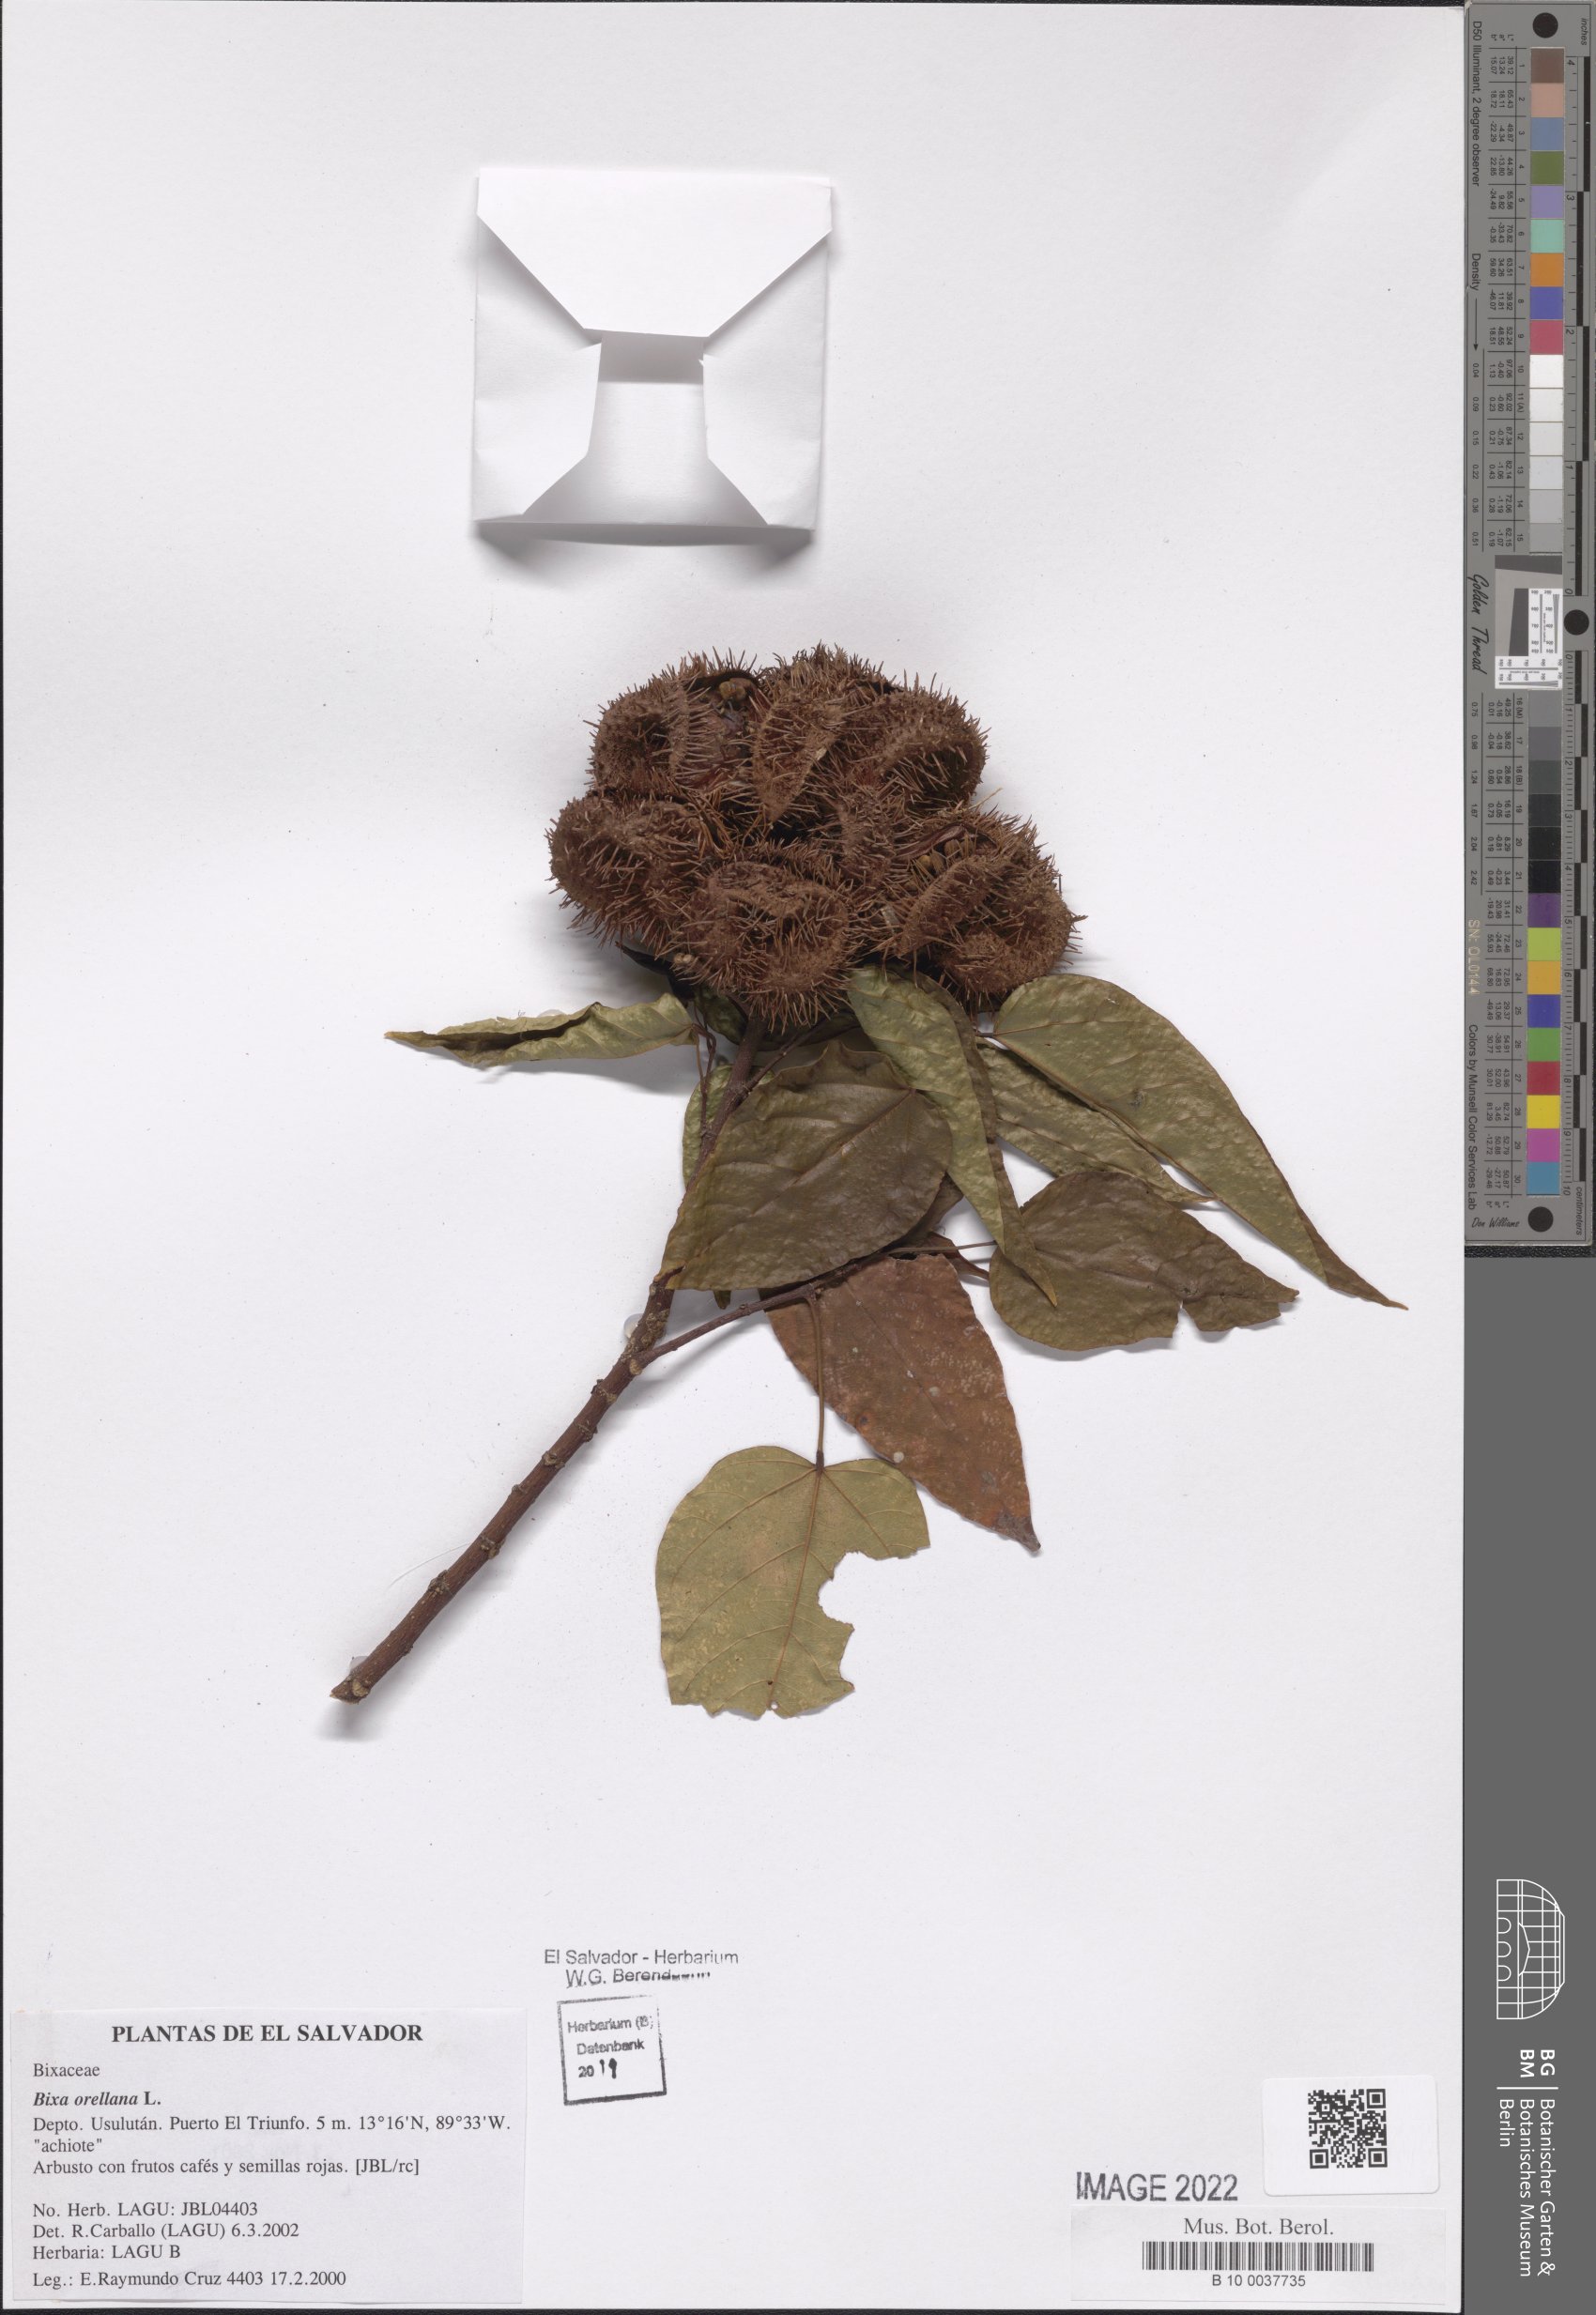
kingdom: Plantae
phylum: Tracheophyta
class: Magnoliopsida
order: Malvales
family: Bixaceae
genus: Bixa
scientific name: Bixa orellana
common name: Lipsticktree
